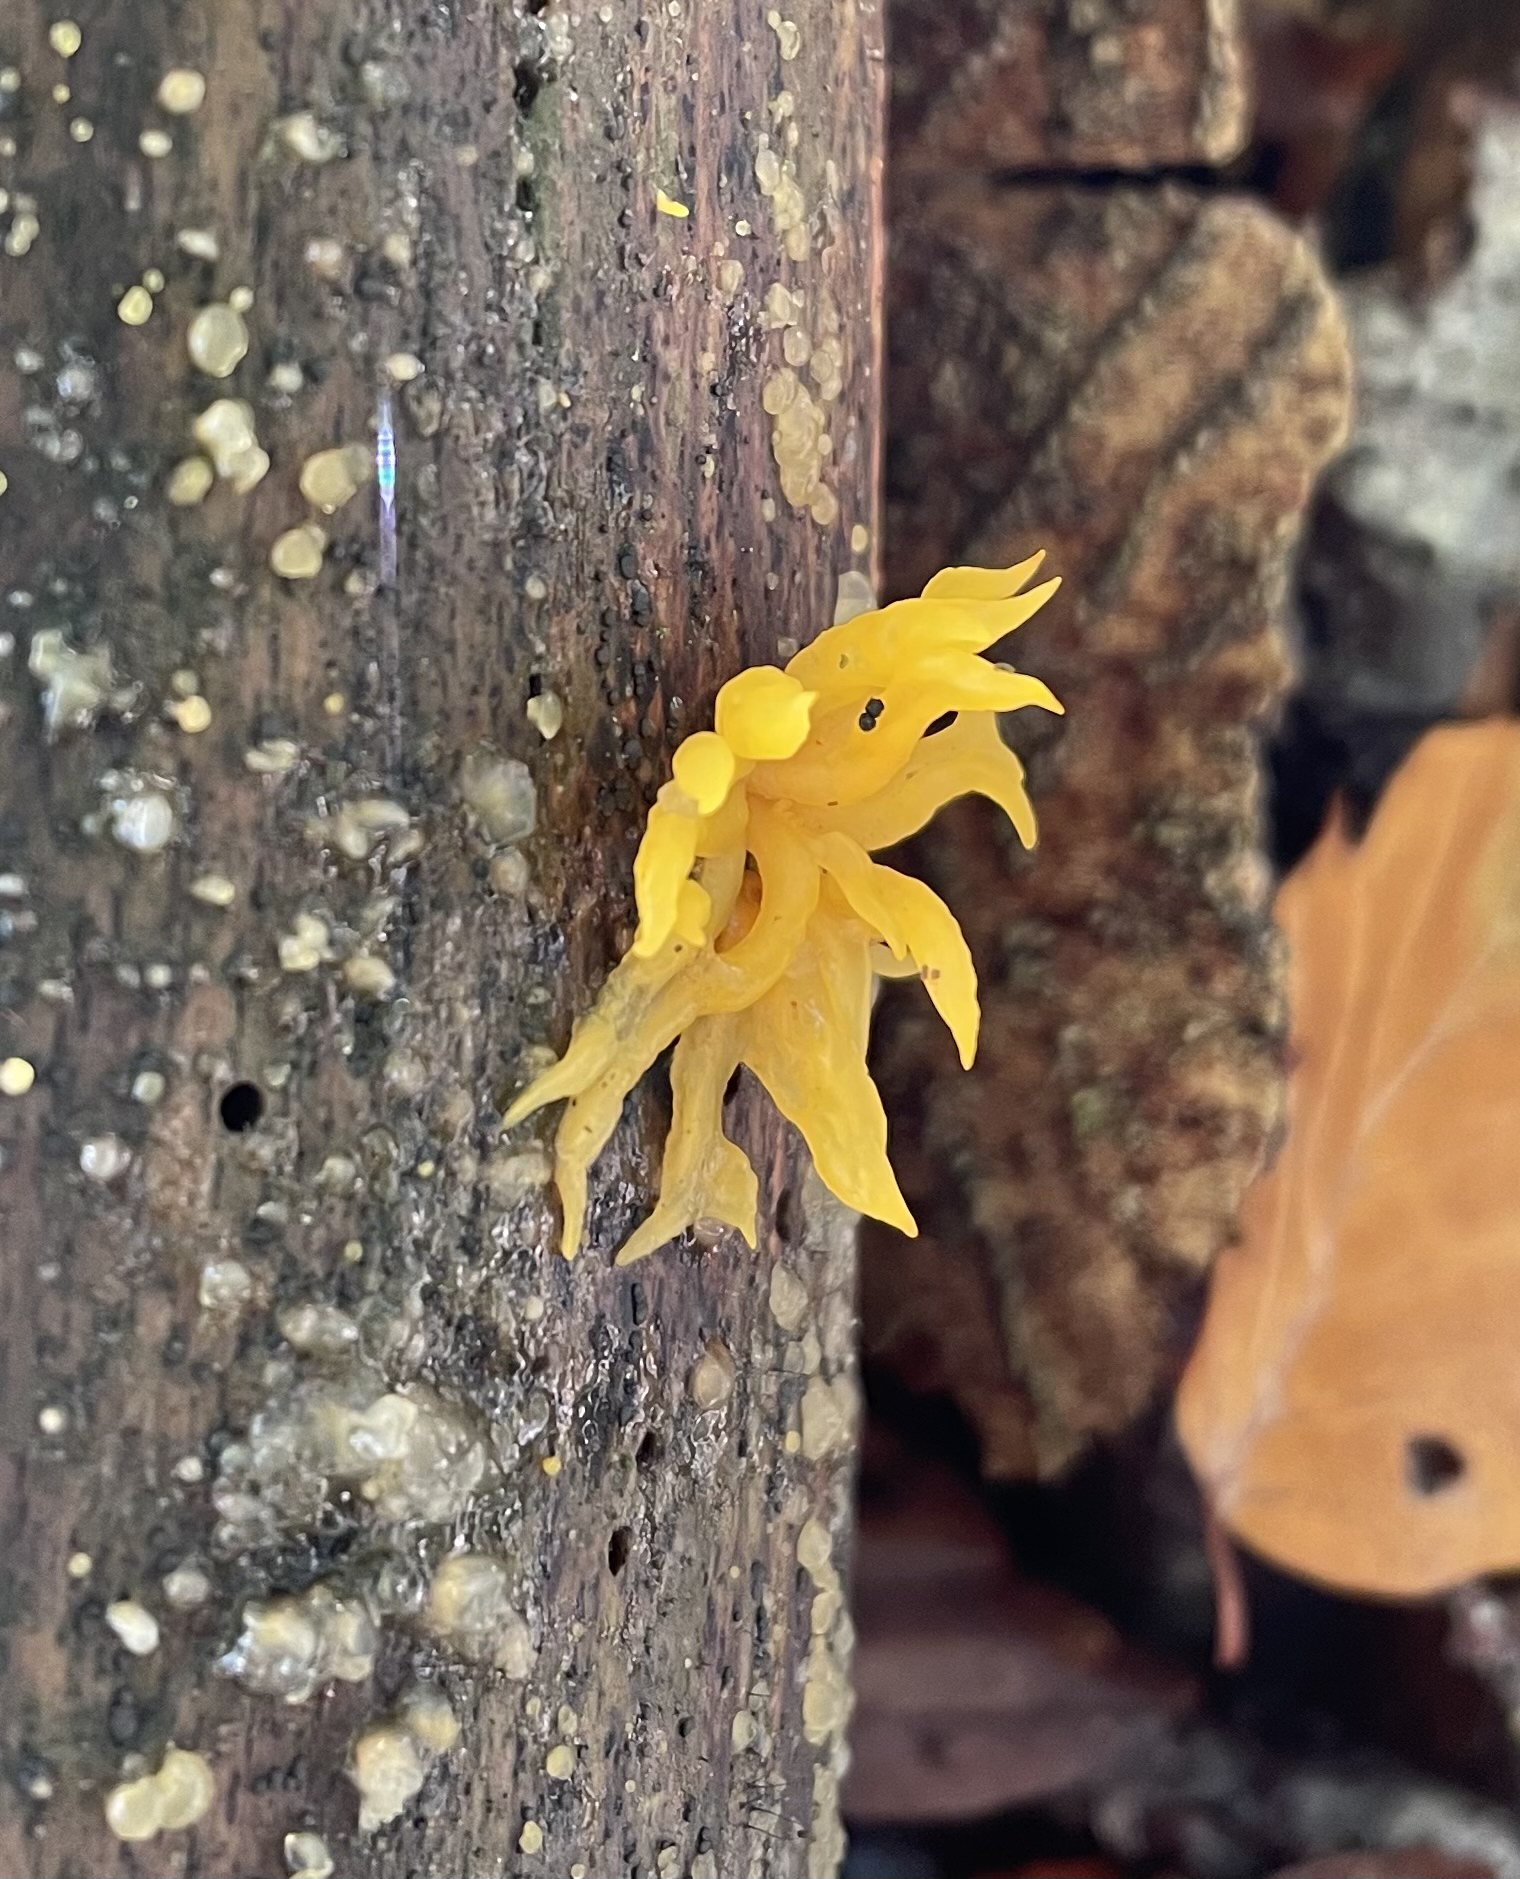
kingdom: Fungi
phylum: Basidiomycota
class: Dacrymycetes
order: Dacrymycetales
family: Dacrymycetaceae
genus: Calocera
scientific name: Calocera cornea
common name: liden guldgaffel
